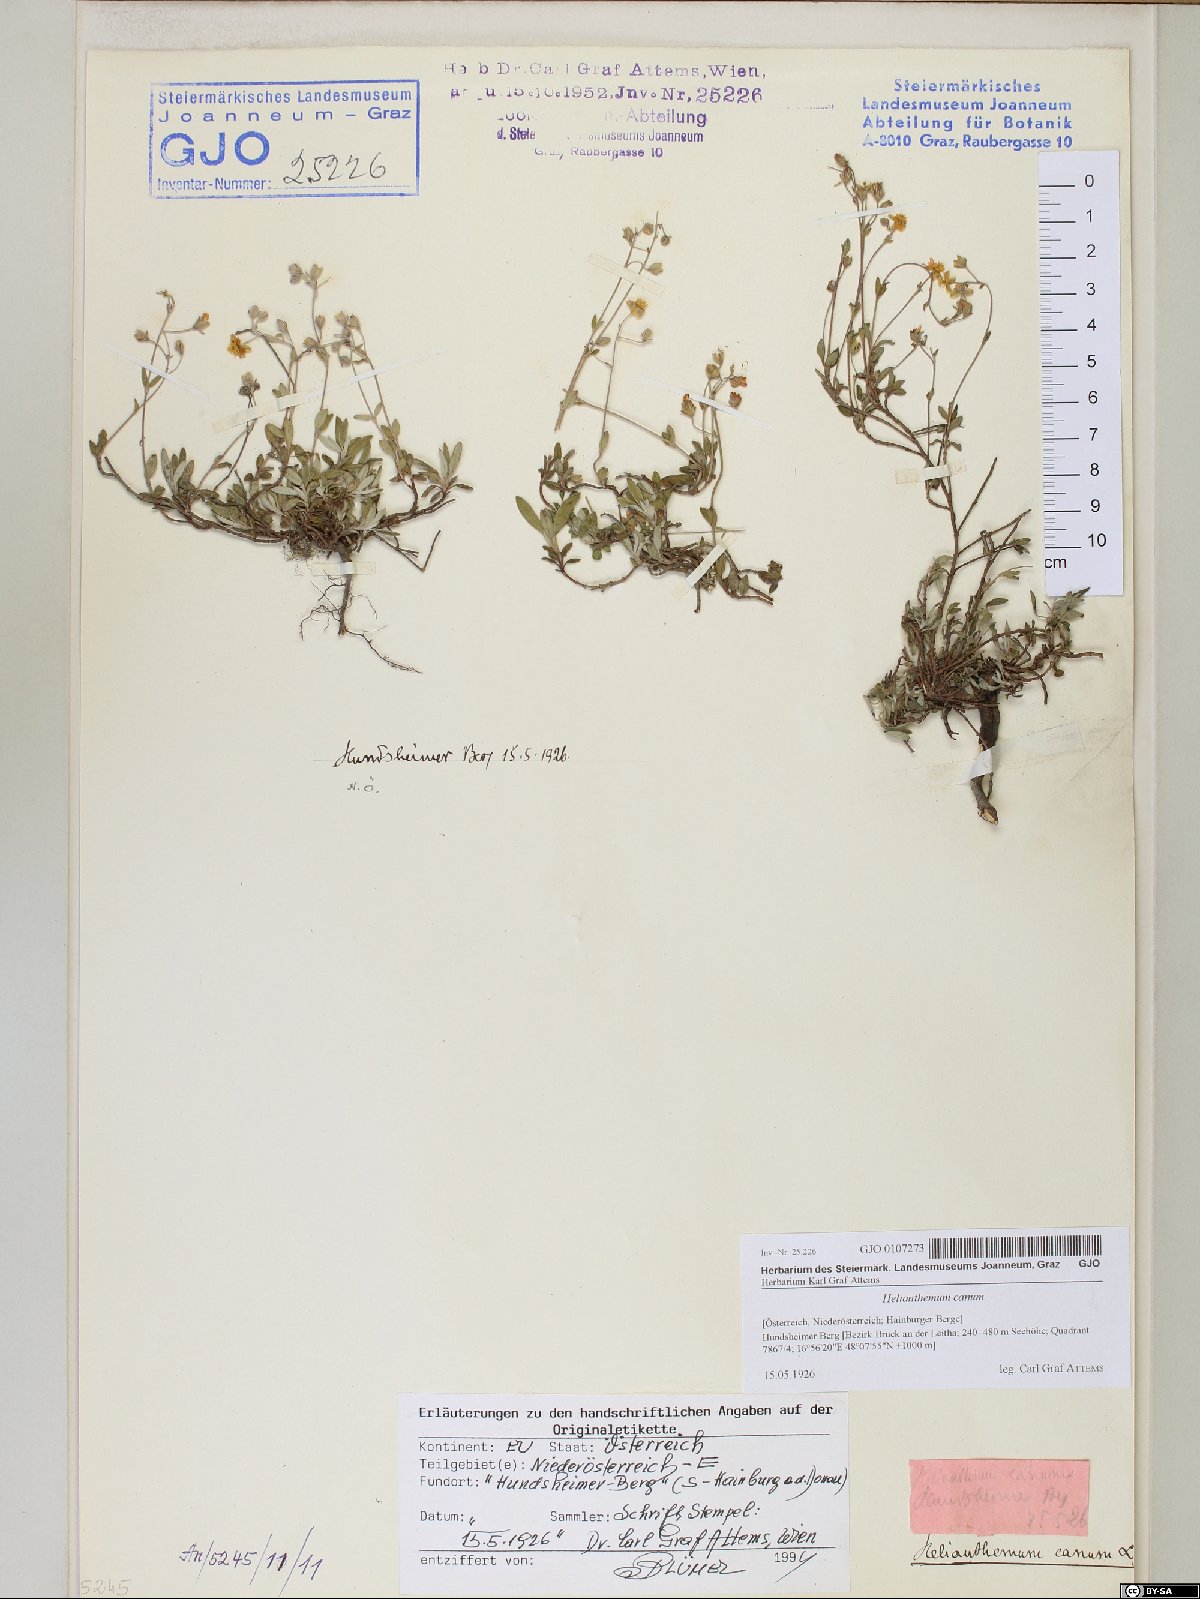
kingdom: Plantae
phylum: Tracheophyta
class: Magnoliopsida
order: Malvales
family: Cistaceae
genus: Helianthemum
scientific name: Helianthemum canum
